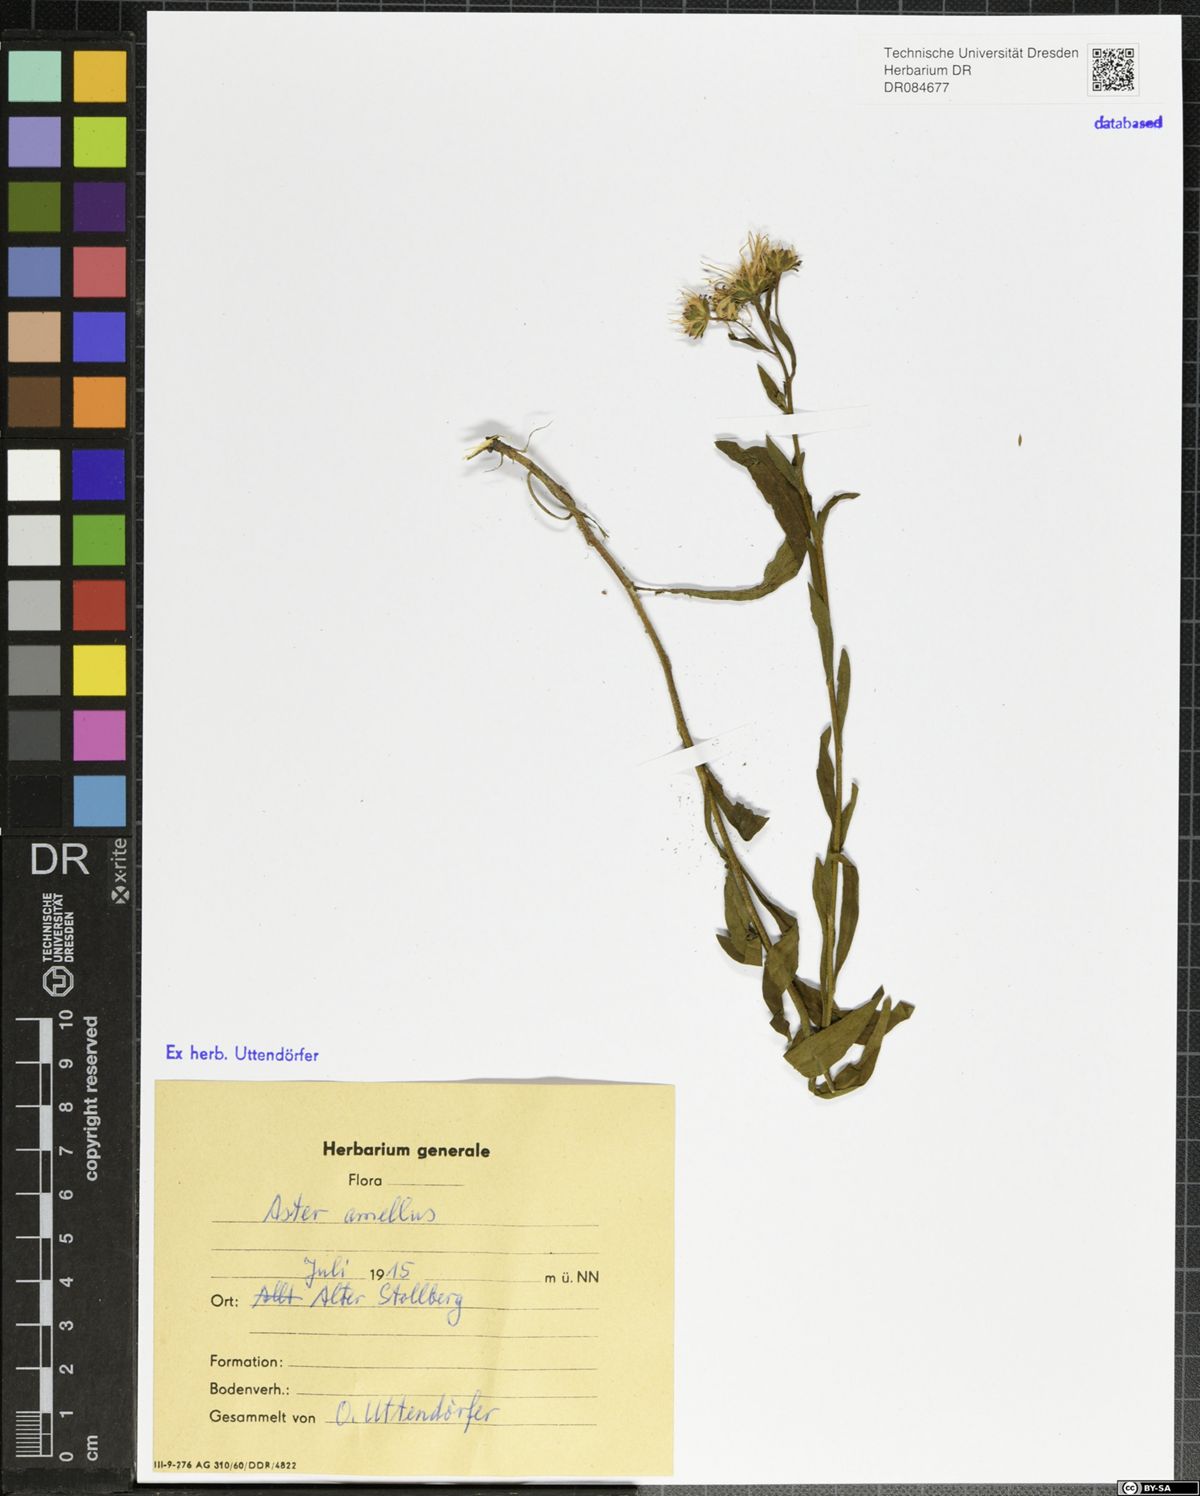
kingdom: Plantae
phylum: Tracheophyta
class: Magnoliopsida
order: Asterales
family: Asteraceae
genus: Aster
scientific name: Aster amellus
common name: European michaelmas daisy
